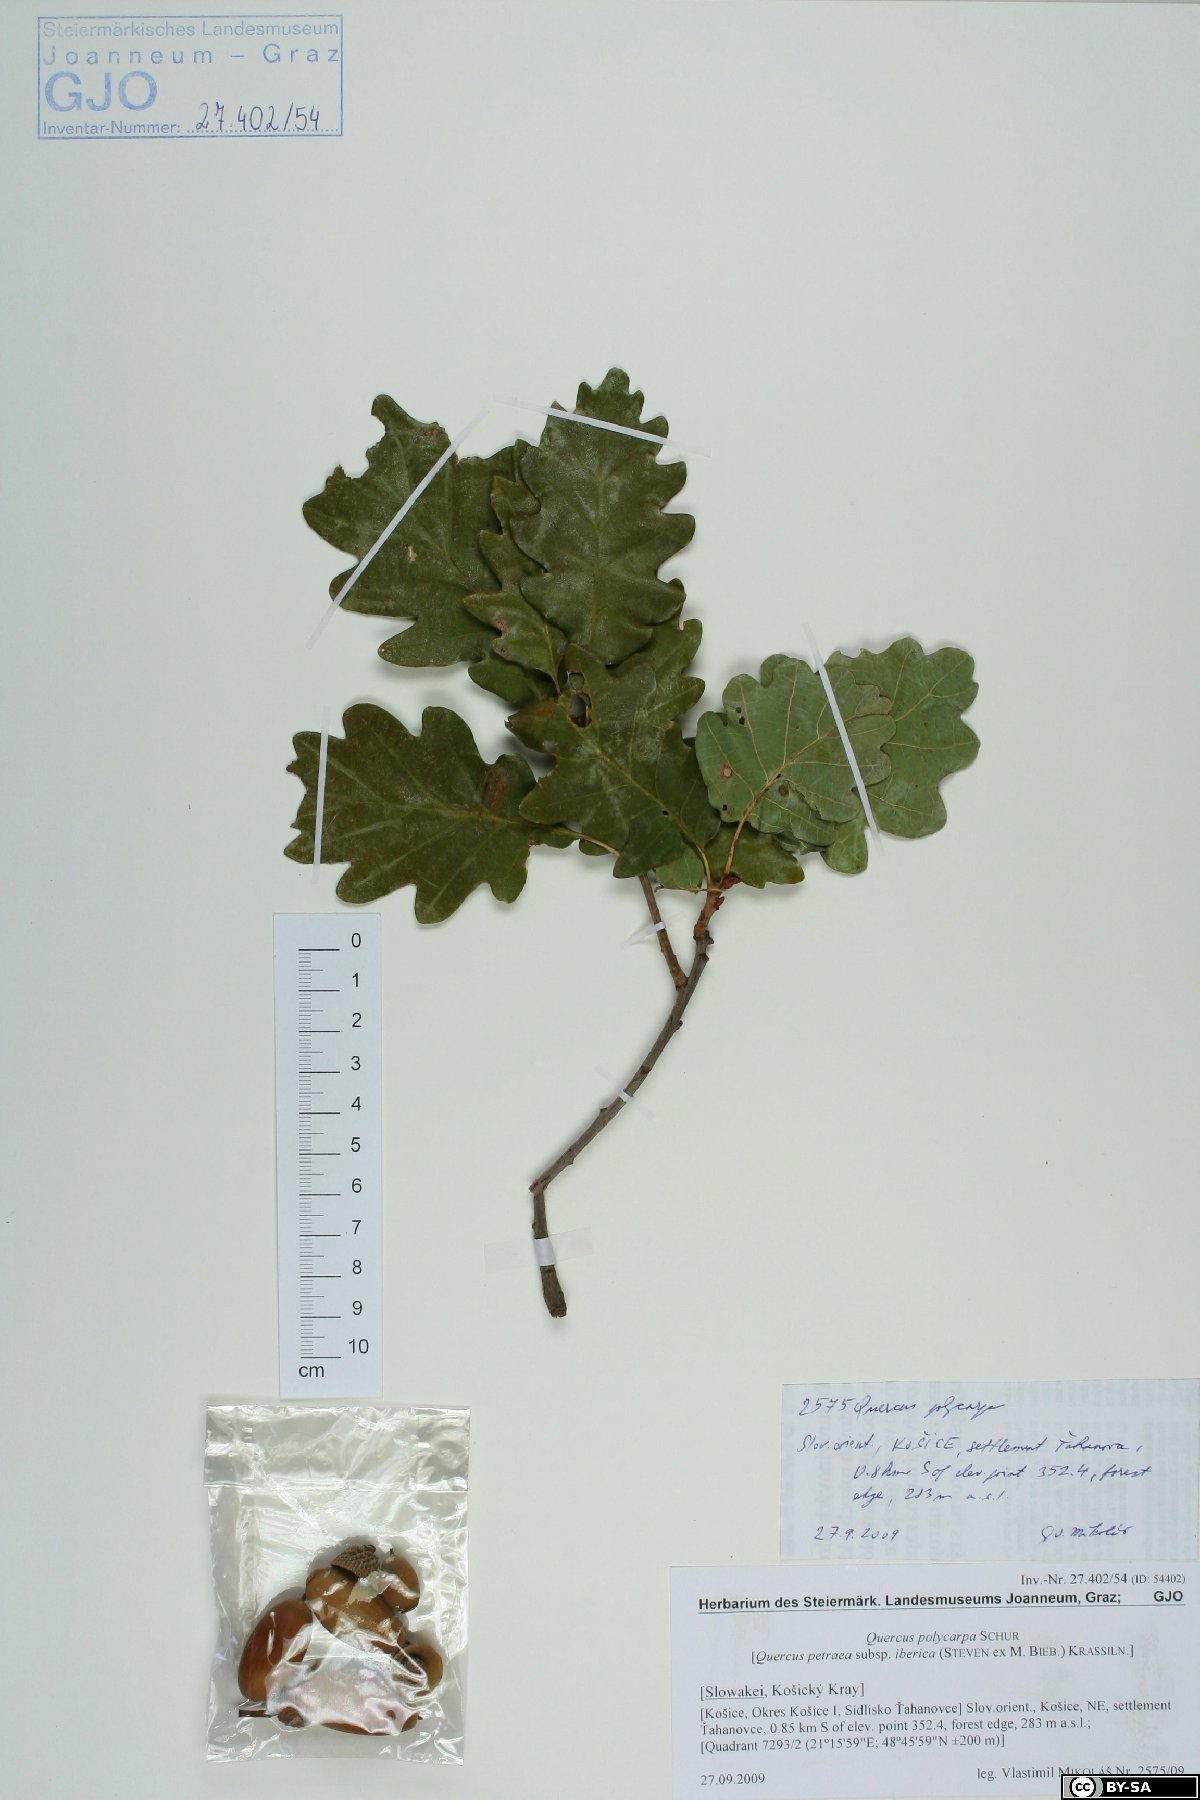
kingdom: Plantae
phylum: Tracheophyta
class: Magnoliopsida
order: Fagales
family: Fagaceae
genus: Quercus
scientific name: Quercus petraea
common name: Sessile oak
